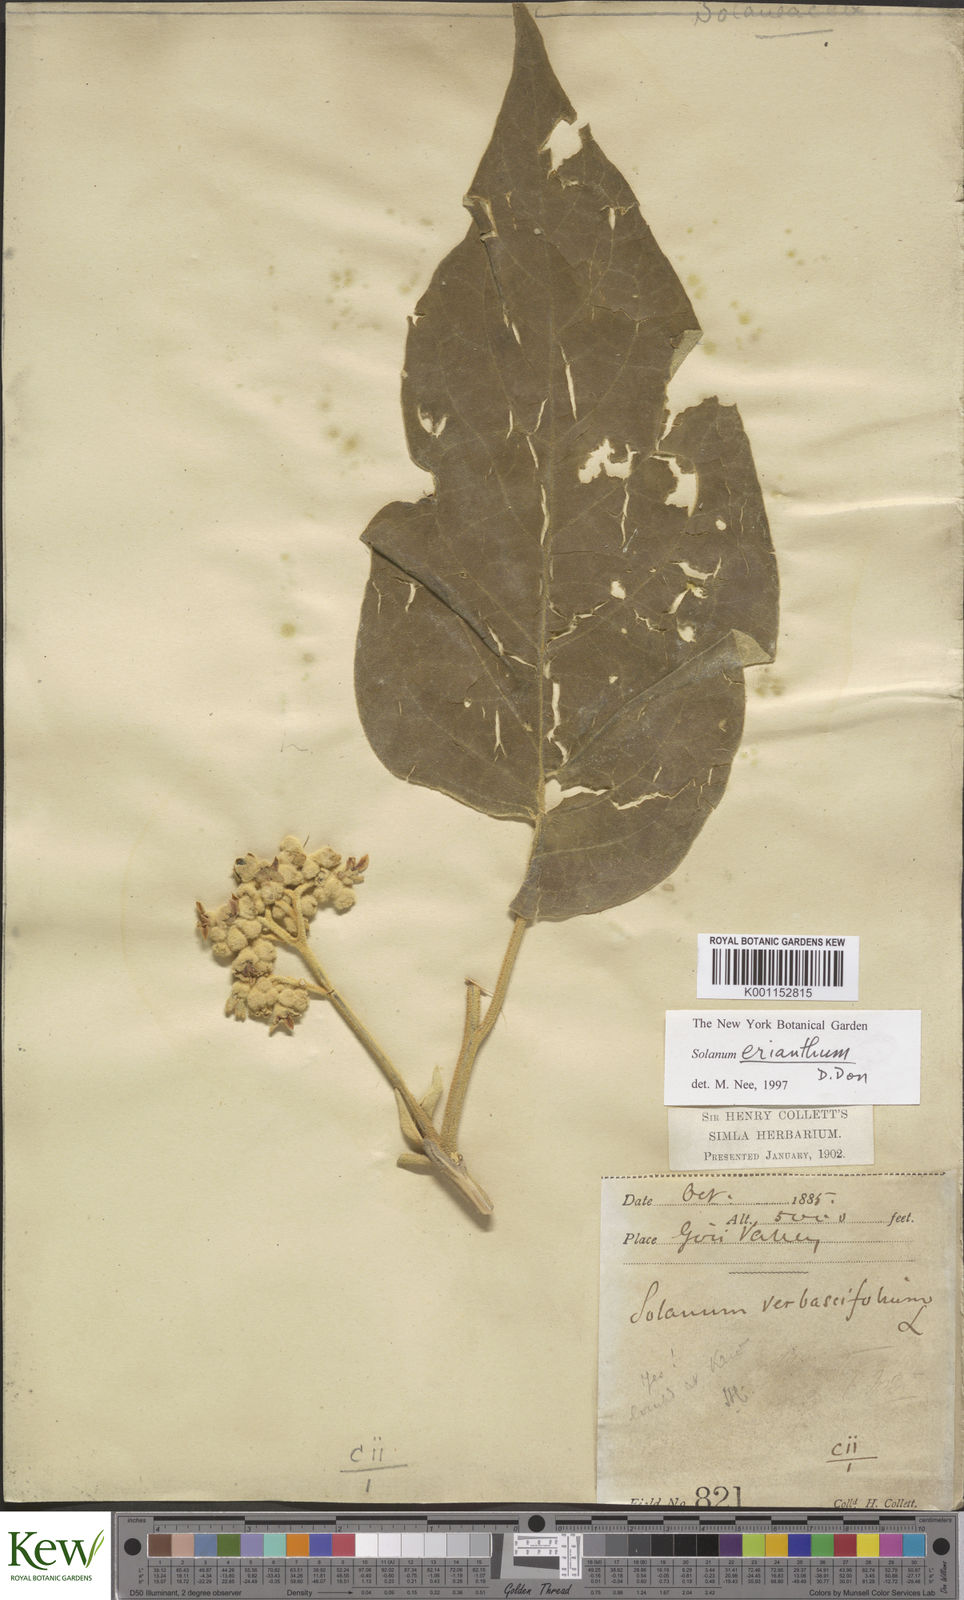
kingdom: Plantae
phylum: Tracheophyta
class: Magnoliopsida
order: Solanales
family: Solanaceae
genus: Solanum
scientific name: Solanum erianthum
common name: Tobacco-tree
